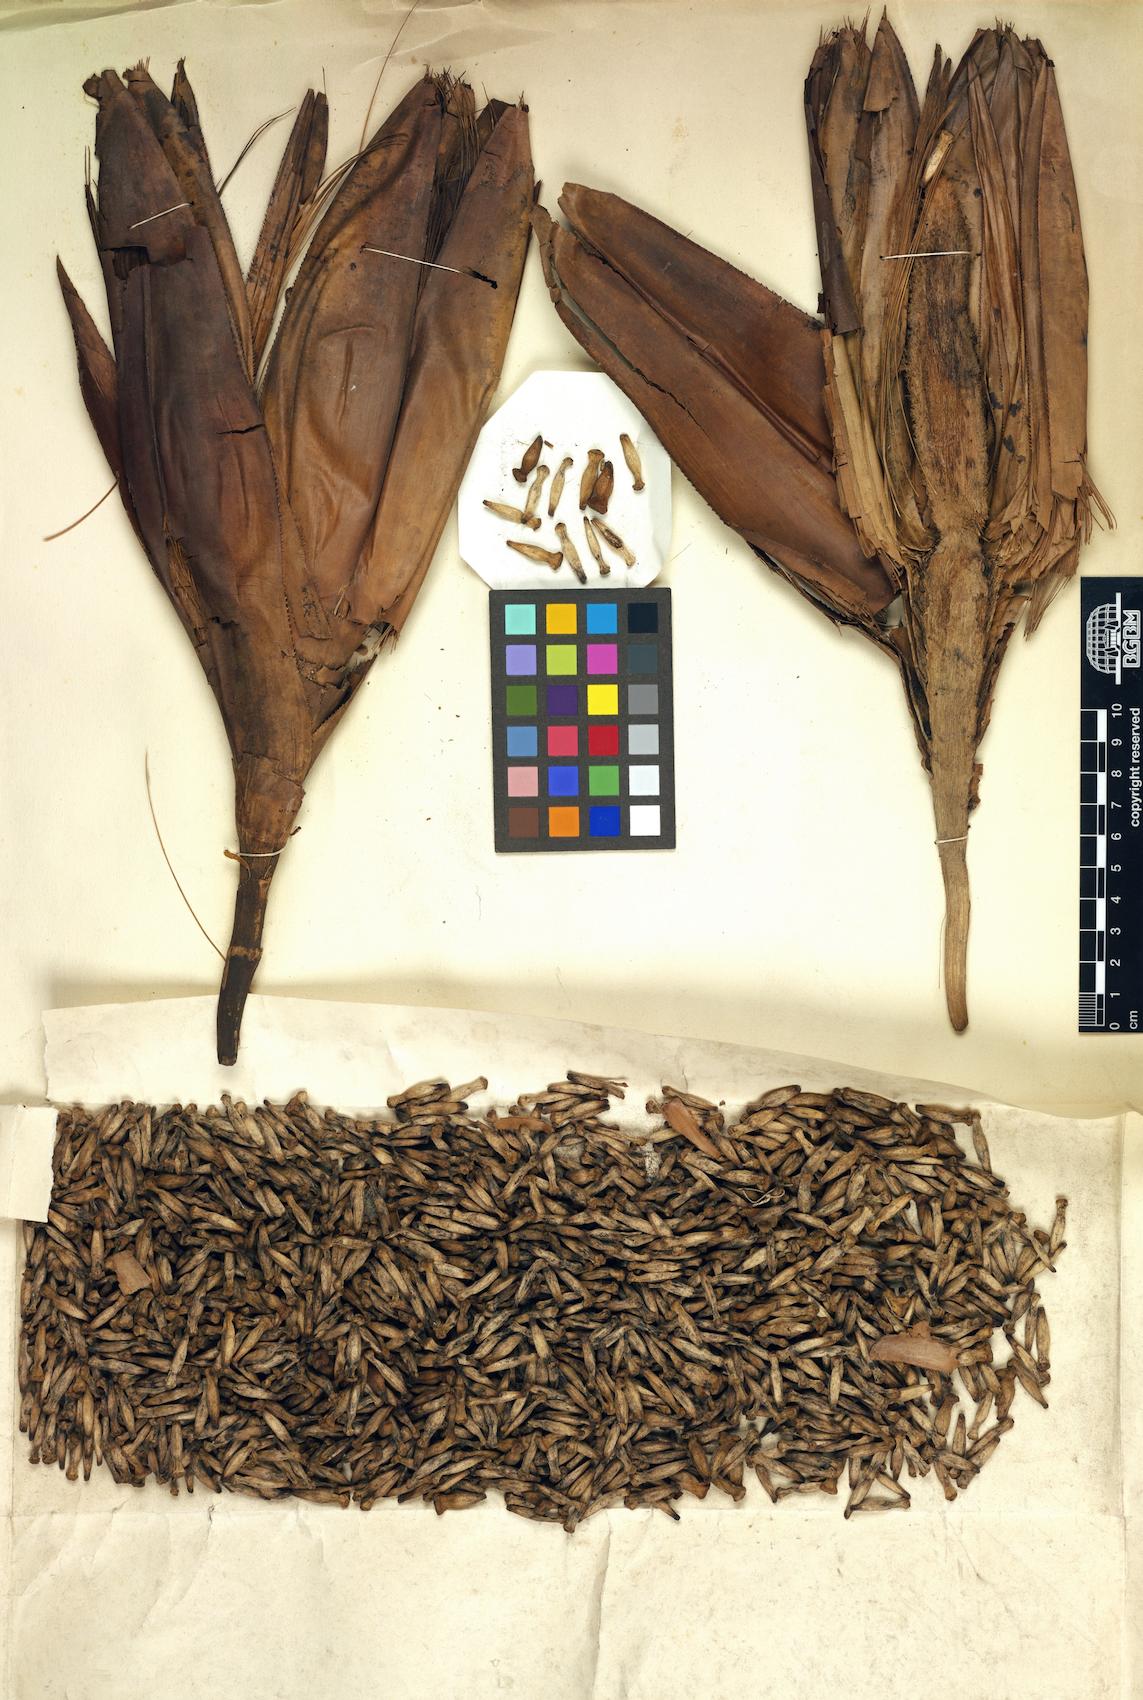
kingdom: Plantae
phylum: Tracheophyta
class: Liliopsida
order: Pandanales
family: Pandanaceae
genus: Pandanus
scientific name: Pandanus krauelianus
